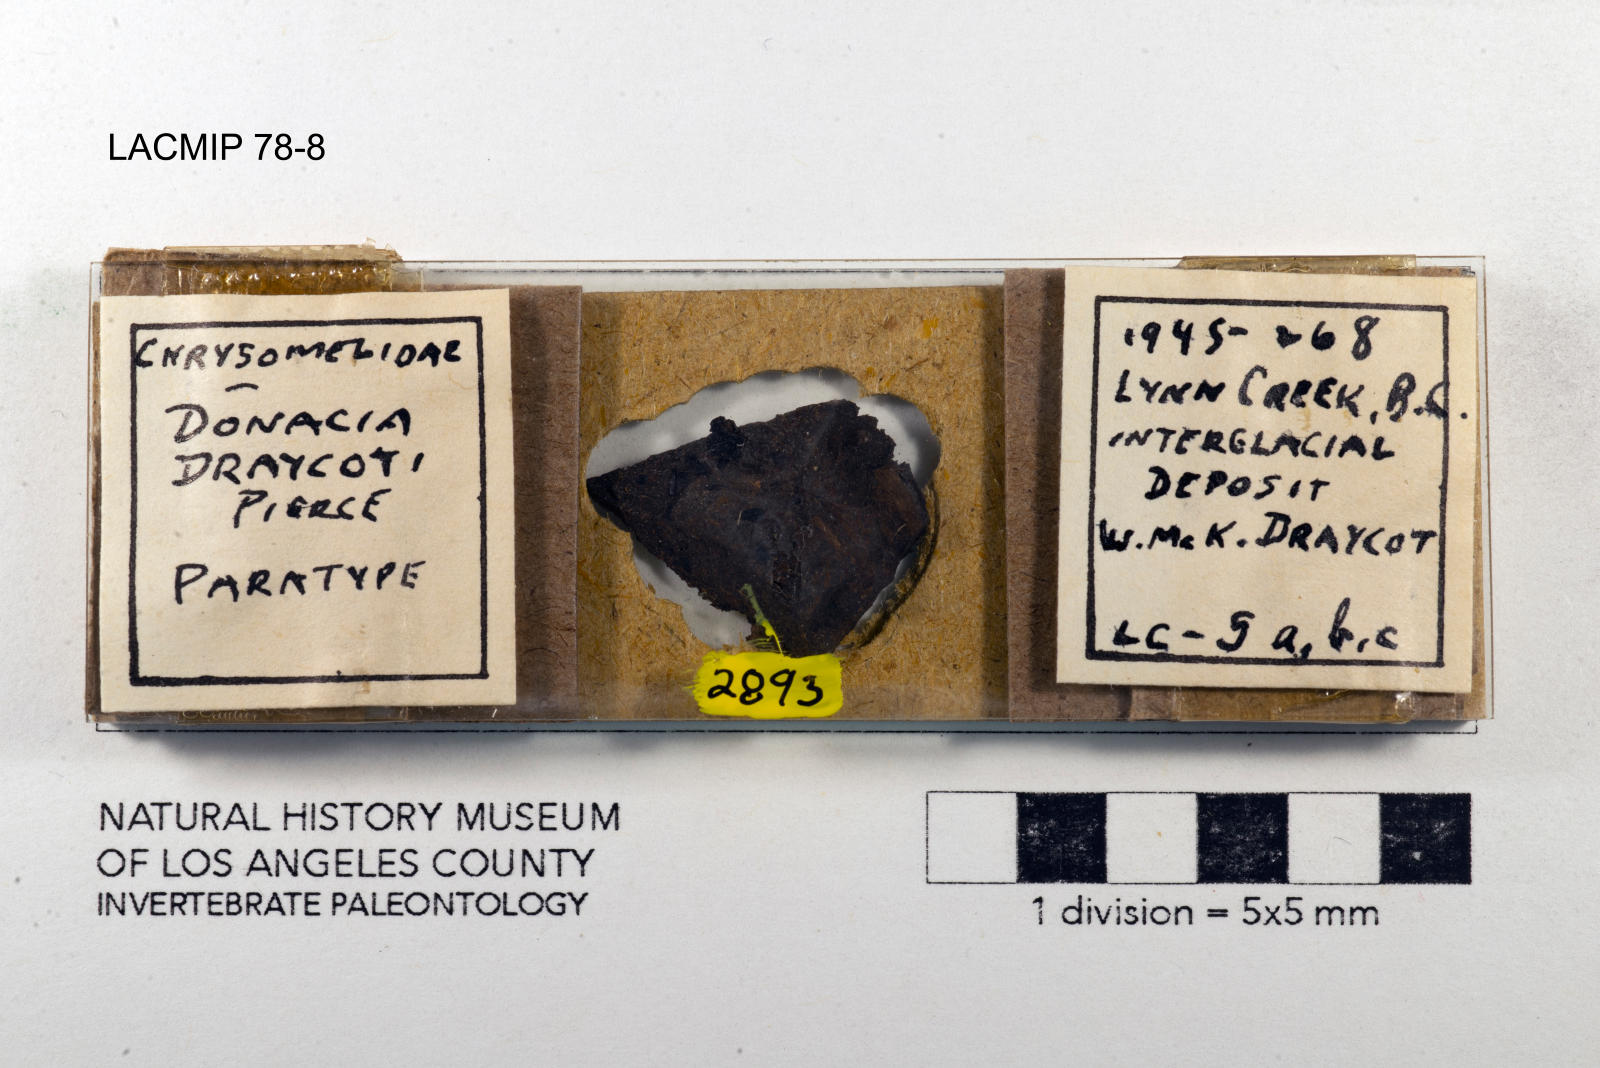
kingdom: Animalia
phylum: Arthropoda
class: Insecta
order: Coleoptera
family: Chrysomelidae
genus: Donacia
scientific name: Donacia draycoti
